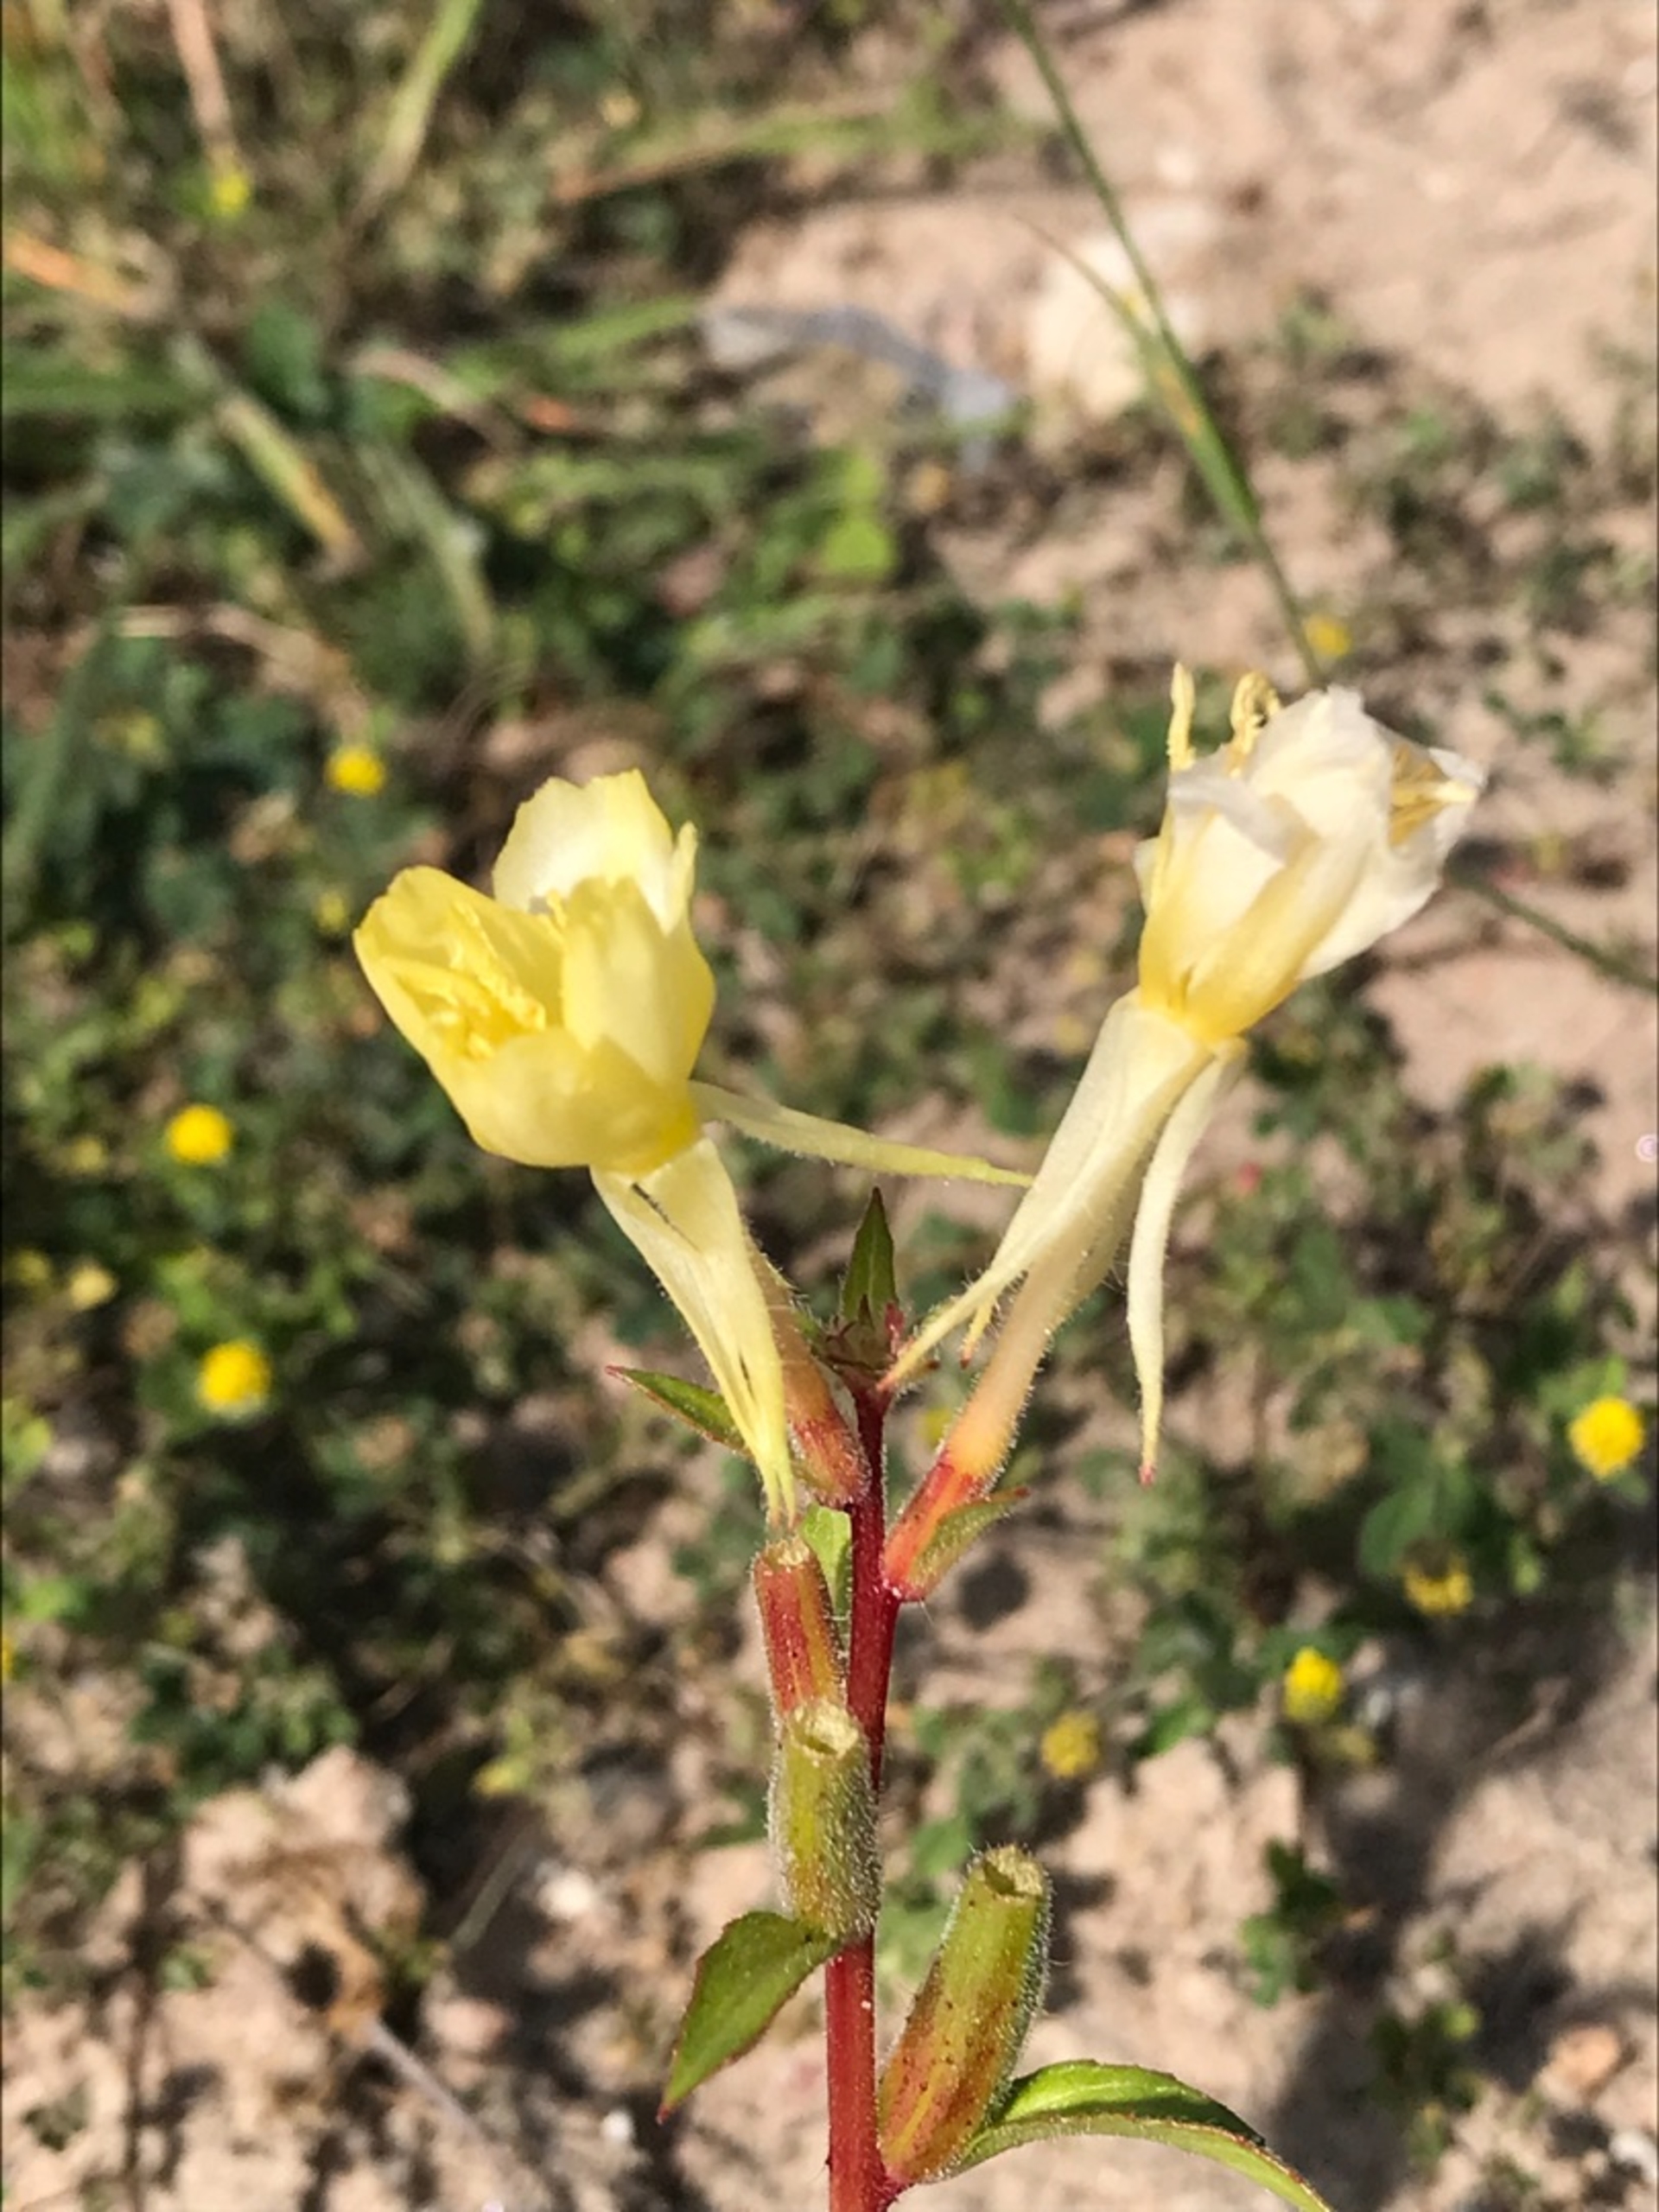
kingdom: Plantae
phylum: Tracheophyta
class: Magnoliopsida
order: Myrtales
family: Onagraceae
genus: Oenothera
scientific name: Oenothera biennis
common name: Rødfrugtet natlys
